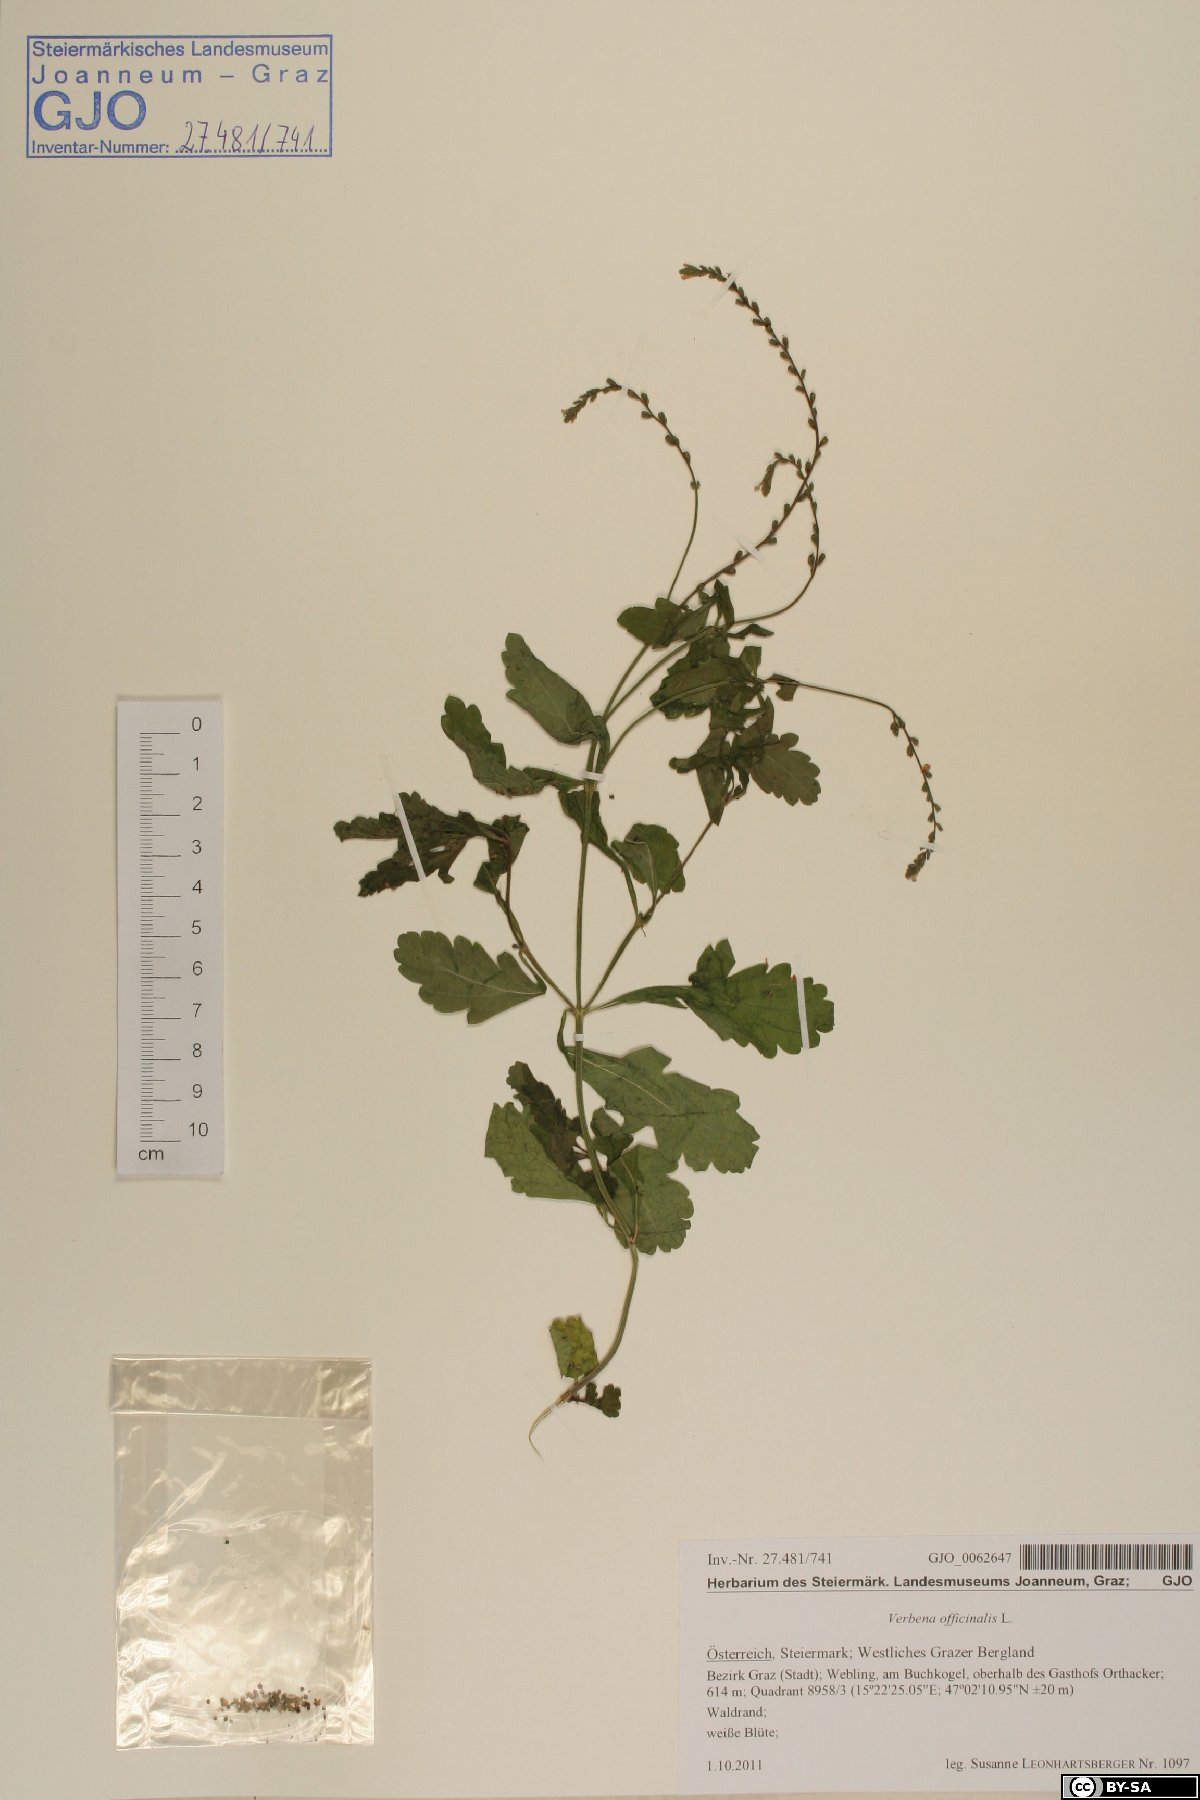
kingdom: Plantae
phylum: Tracheophyta
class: Magnoliopsida
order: Lamiales
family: Verbenaceae
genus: Verbena
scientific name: Verbena officinalis
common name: Vervain
